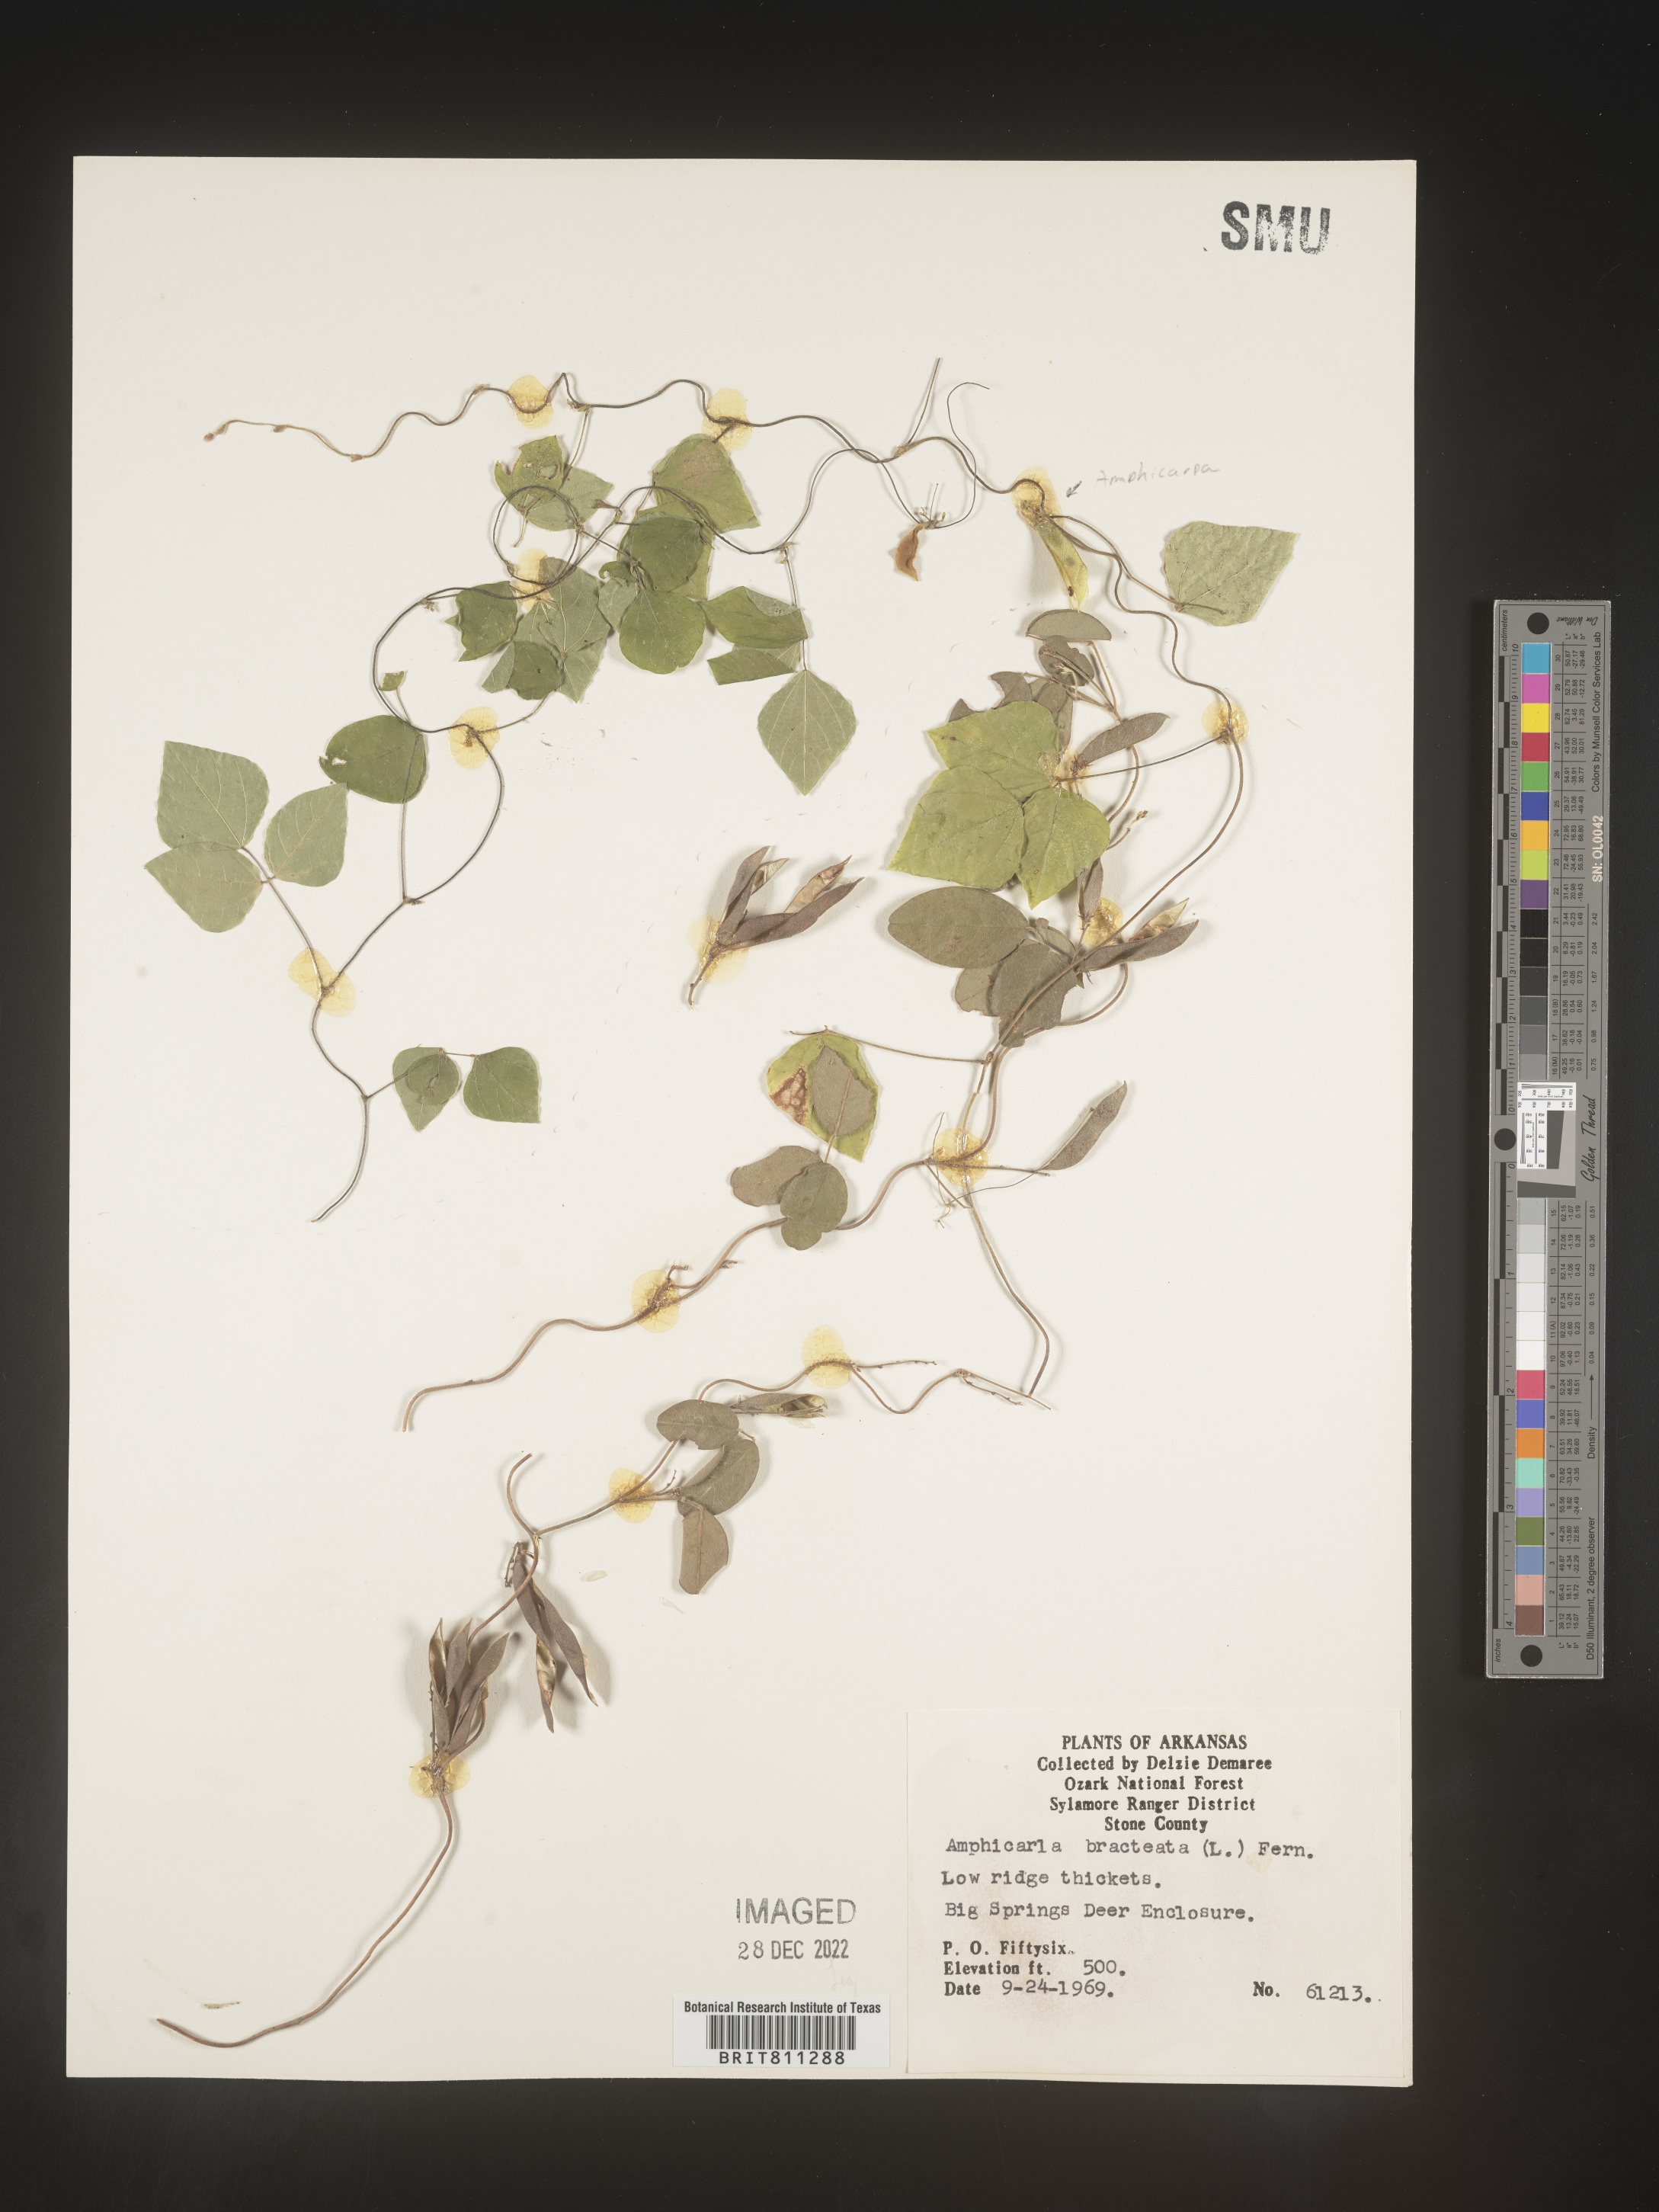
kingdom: Plantae
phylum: Tracheophyta
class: Magnoliopsida
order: Fabales
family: Fabaceae
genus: Amphicarpaea
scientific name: Amphicarpaea bracteata
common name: American hog peanut
